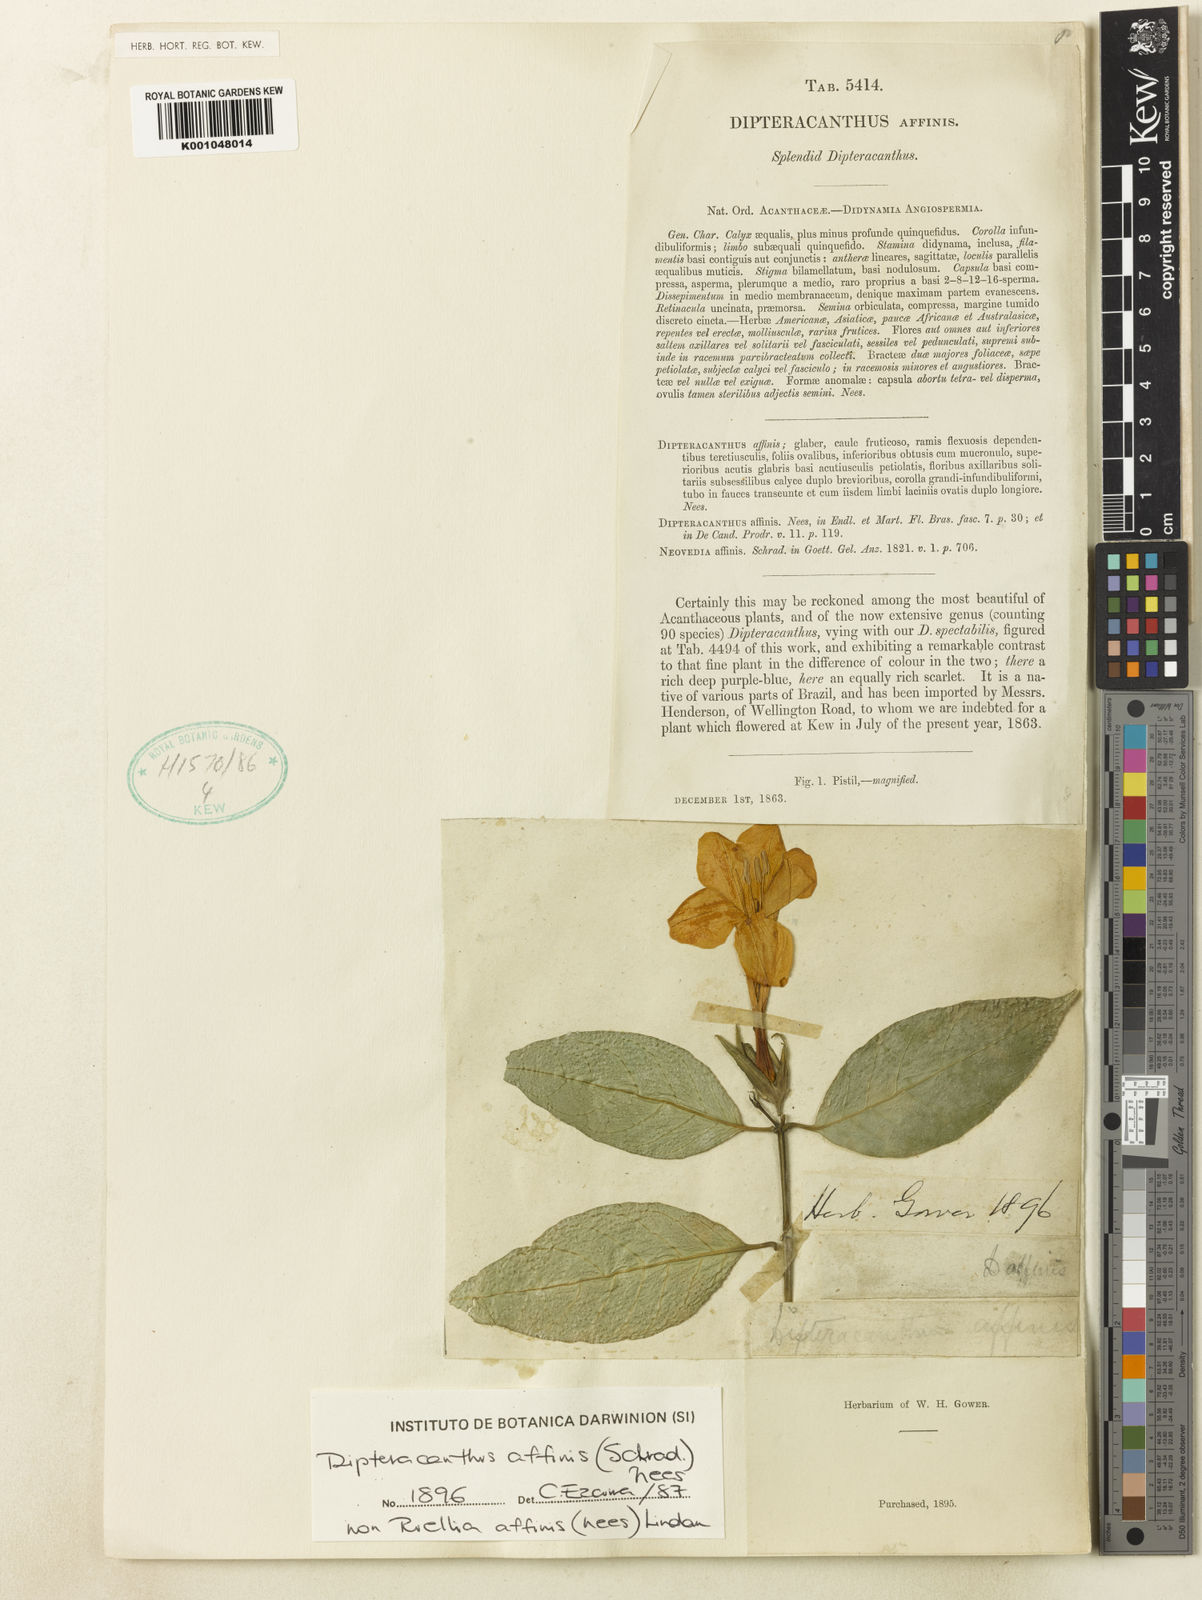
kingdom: Plantae
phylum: Tracheophyta
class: Magnoliopsida
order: Lamiales
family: Acanthaceae
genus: Ruellia
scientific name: Ruellia adenocalyx
